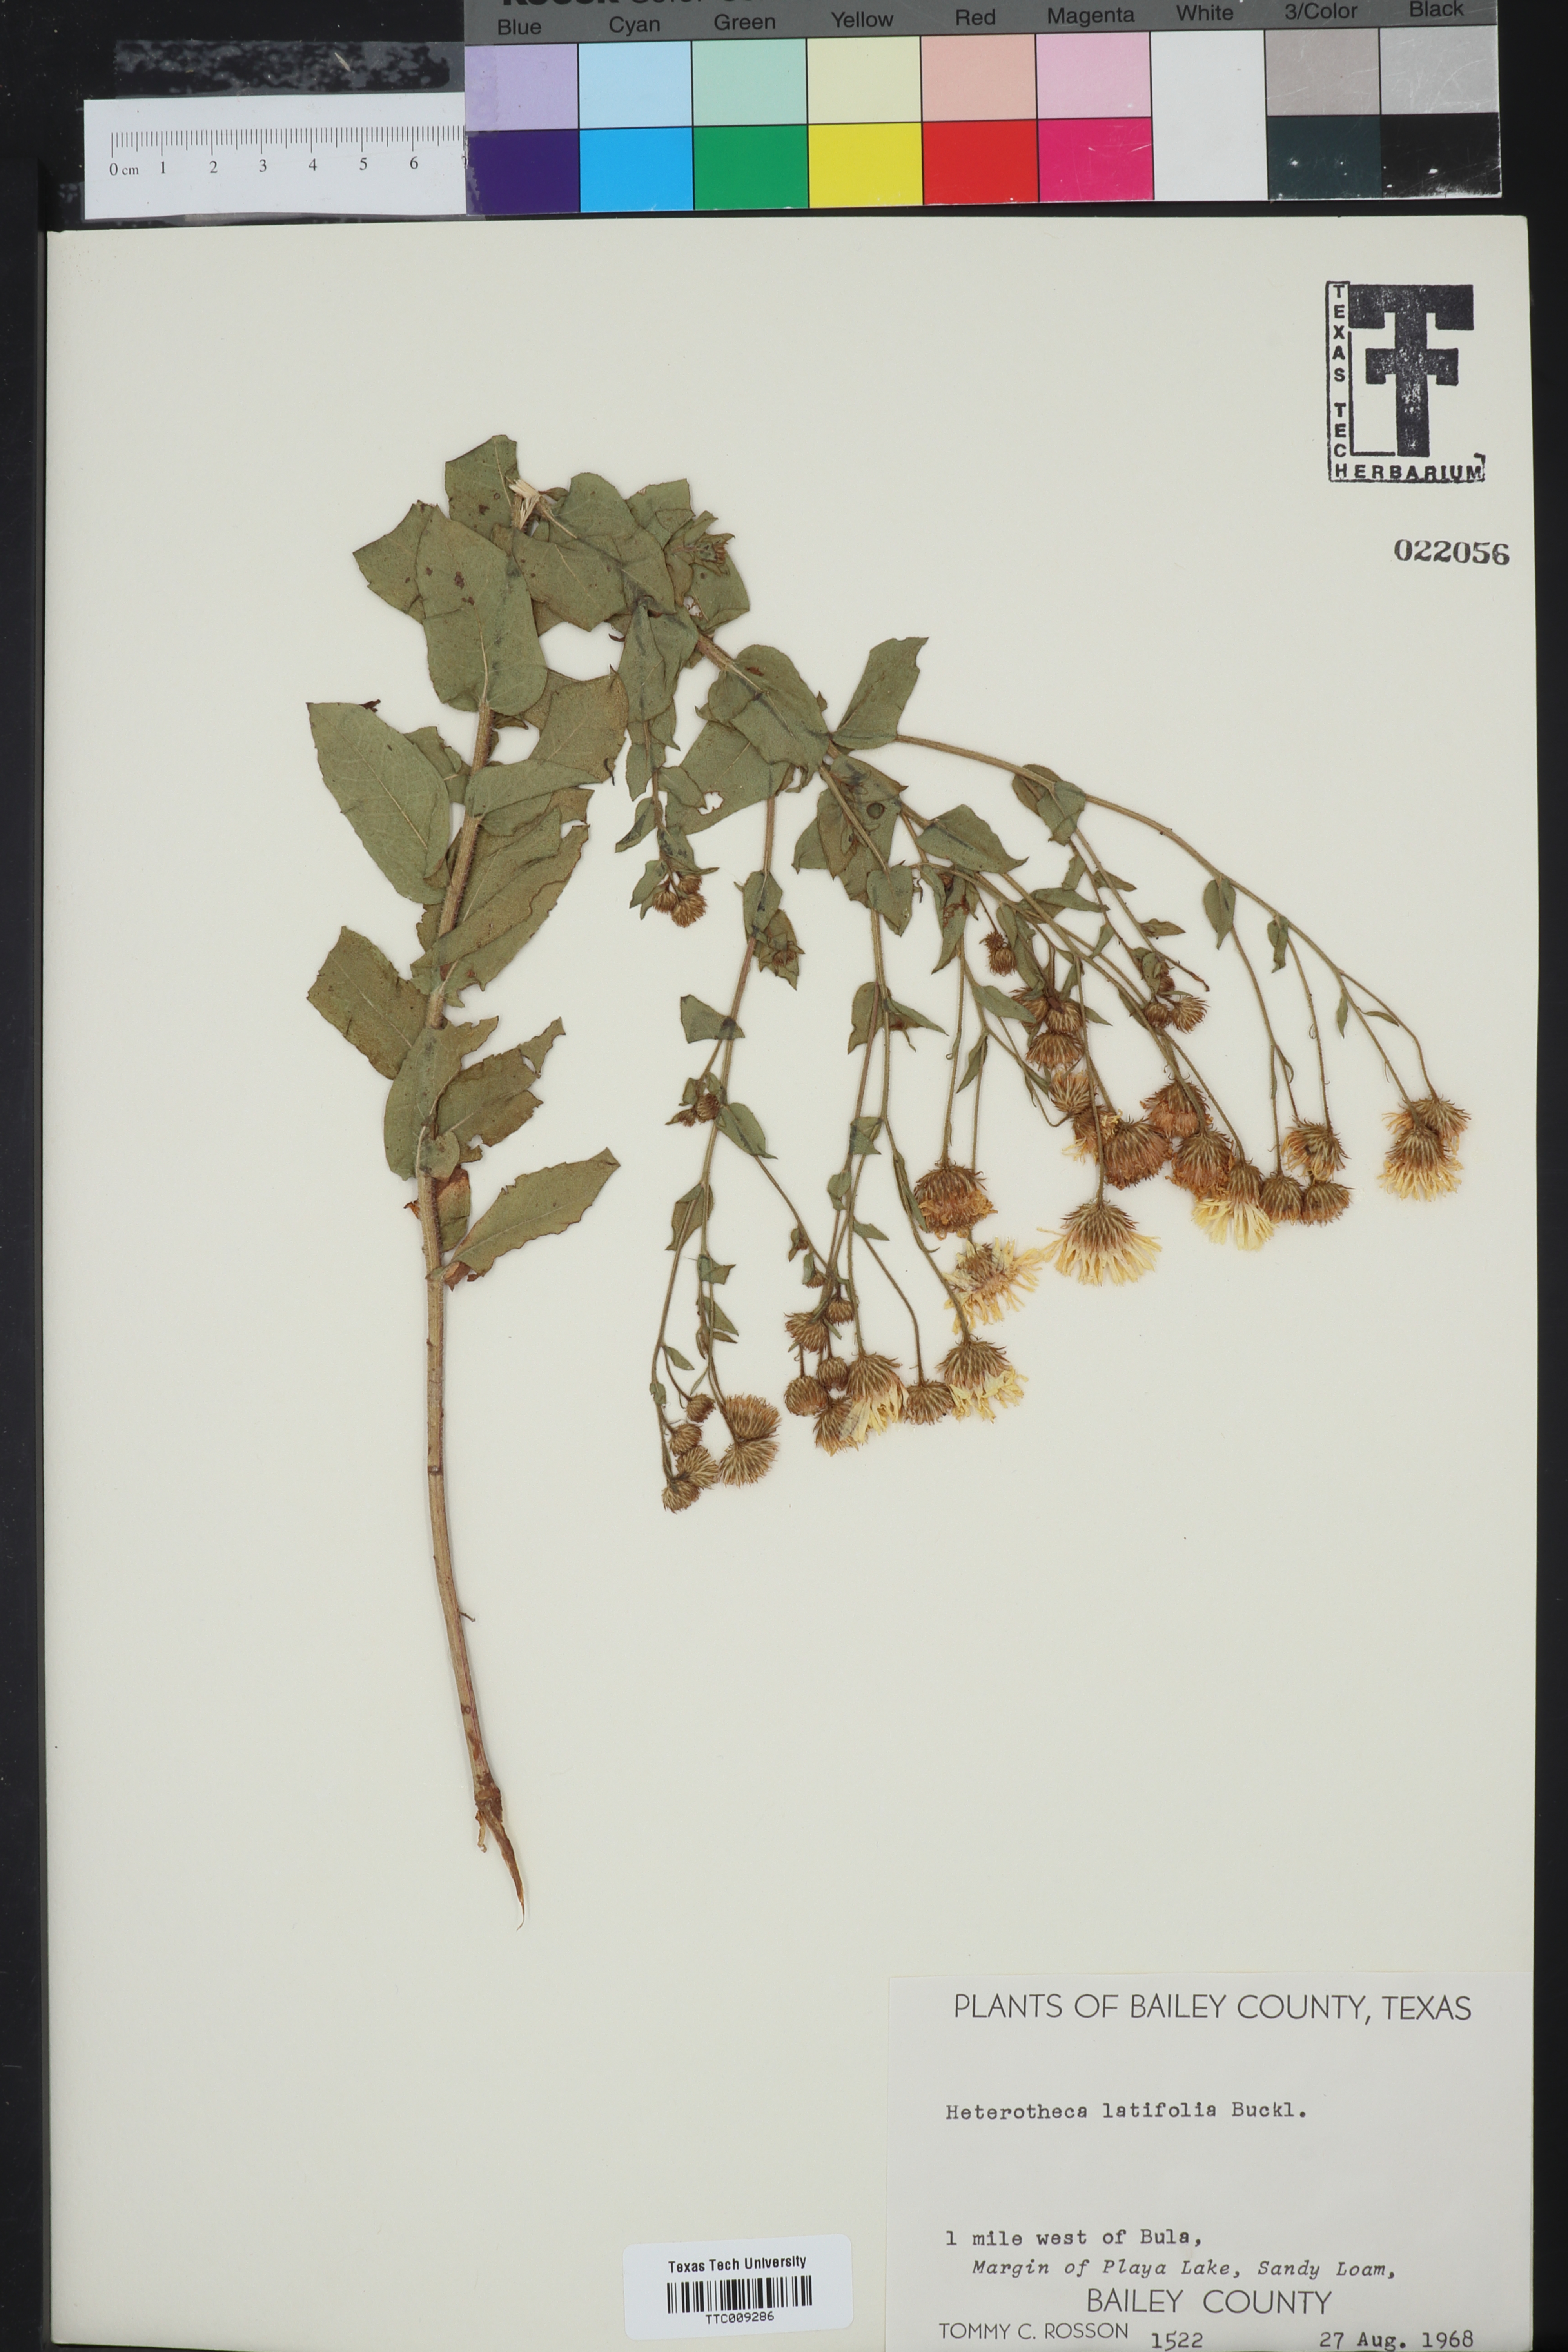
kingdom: Plantae
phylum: Tracheophyta
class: Magnoliopsida
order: Asterales
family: Asteraceae
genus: Heterotheca
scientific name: Heterotheca subaxillaris
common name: Camphorweed
